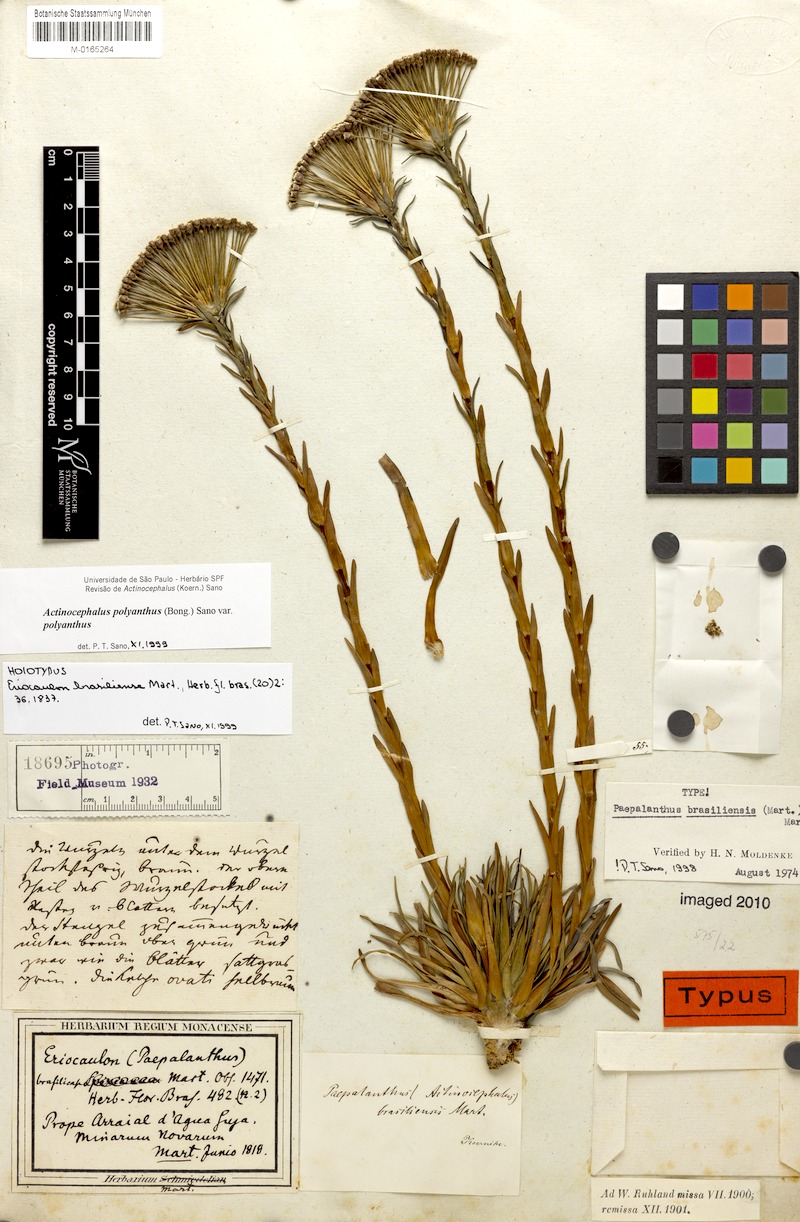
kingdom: Plantae
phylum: Tracheophyta
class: Liliopsida
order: Poales
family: Eriocaulaceae
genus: Paepalanthus
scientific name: Paepalanthus polyanthus
